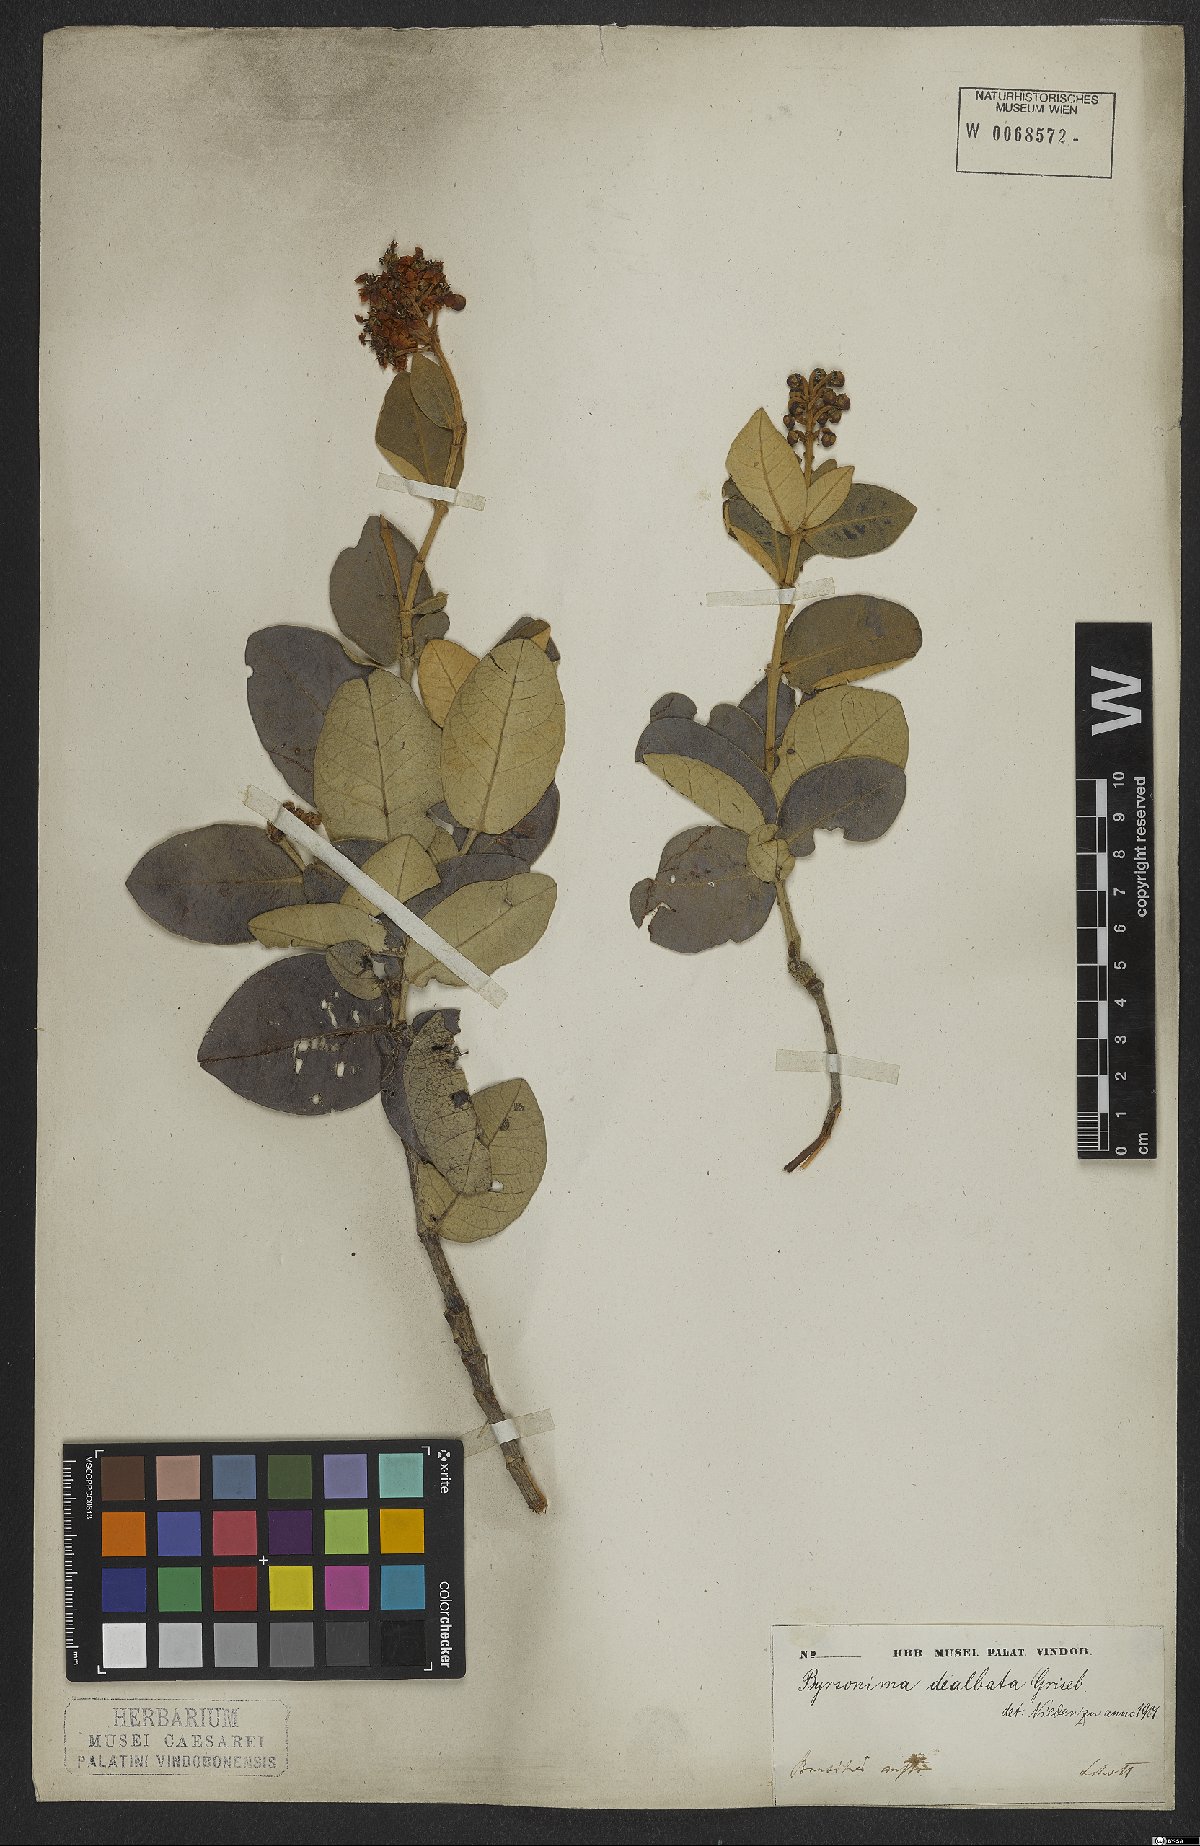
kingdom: Plantae
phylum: Tracheophyta
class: Magnoliopsida
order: Malpighiales
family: Malpighiaceae
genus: Byrsonima
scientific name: Byrsonima dealbata
